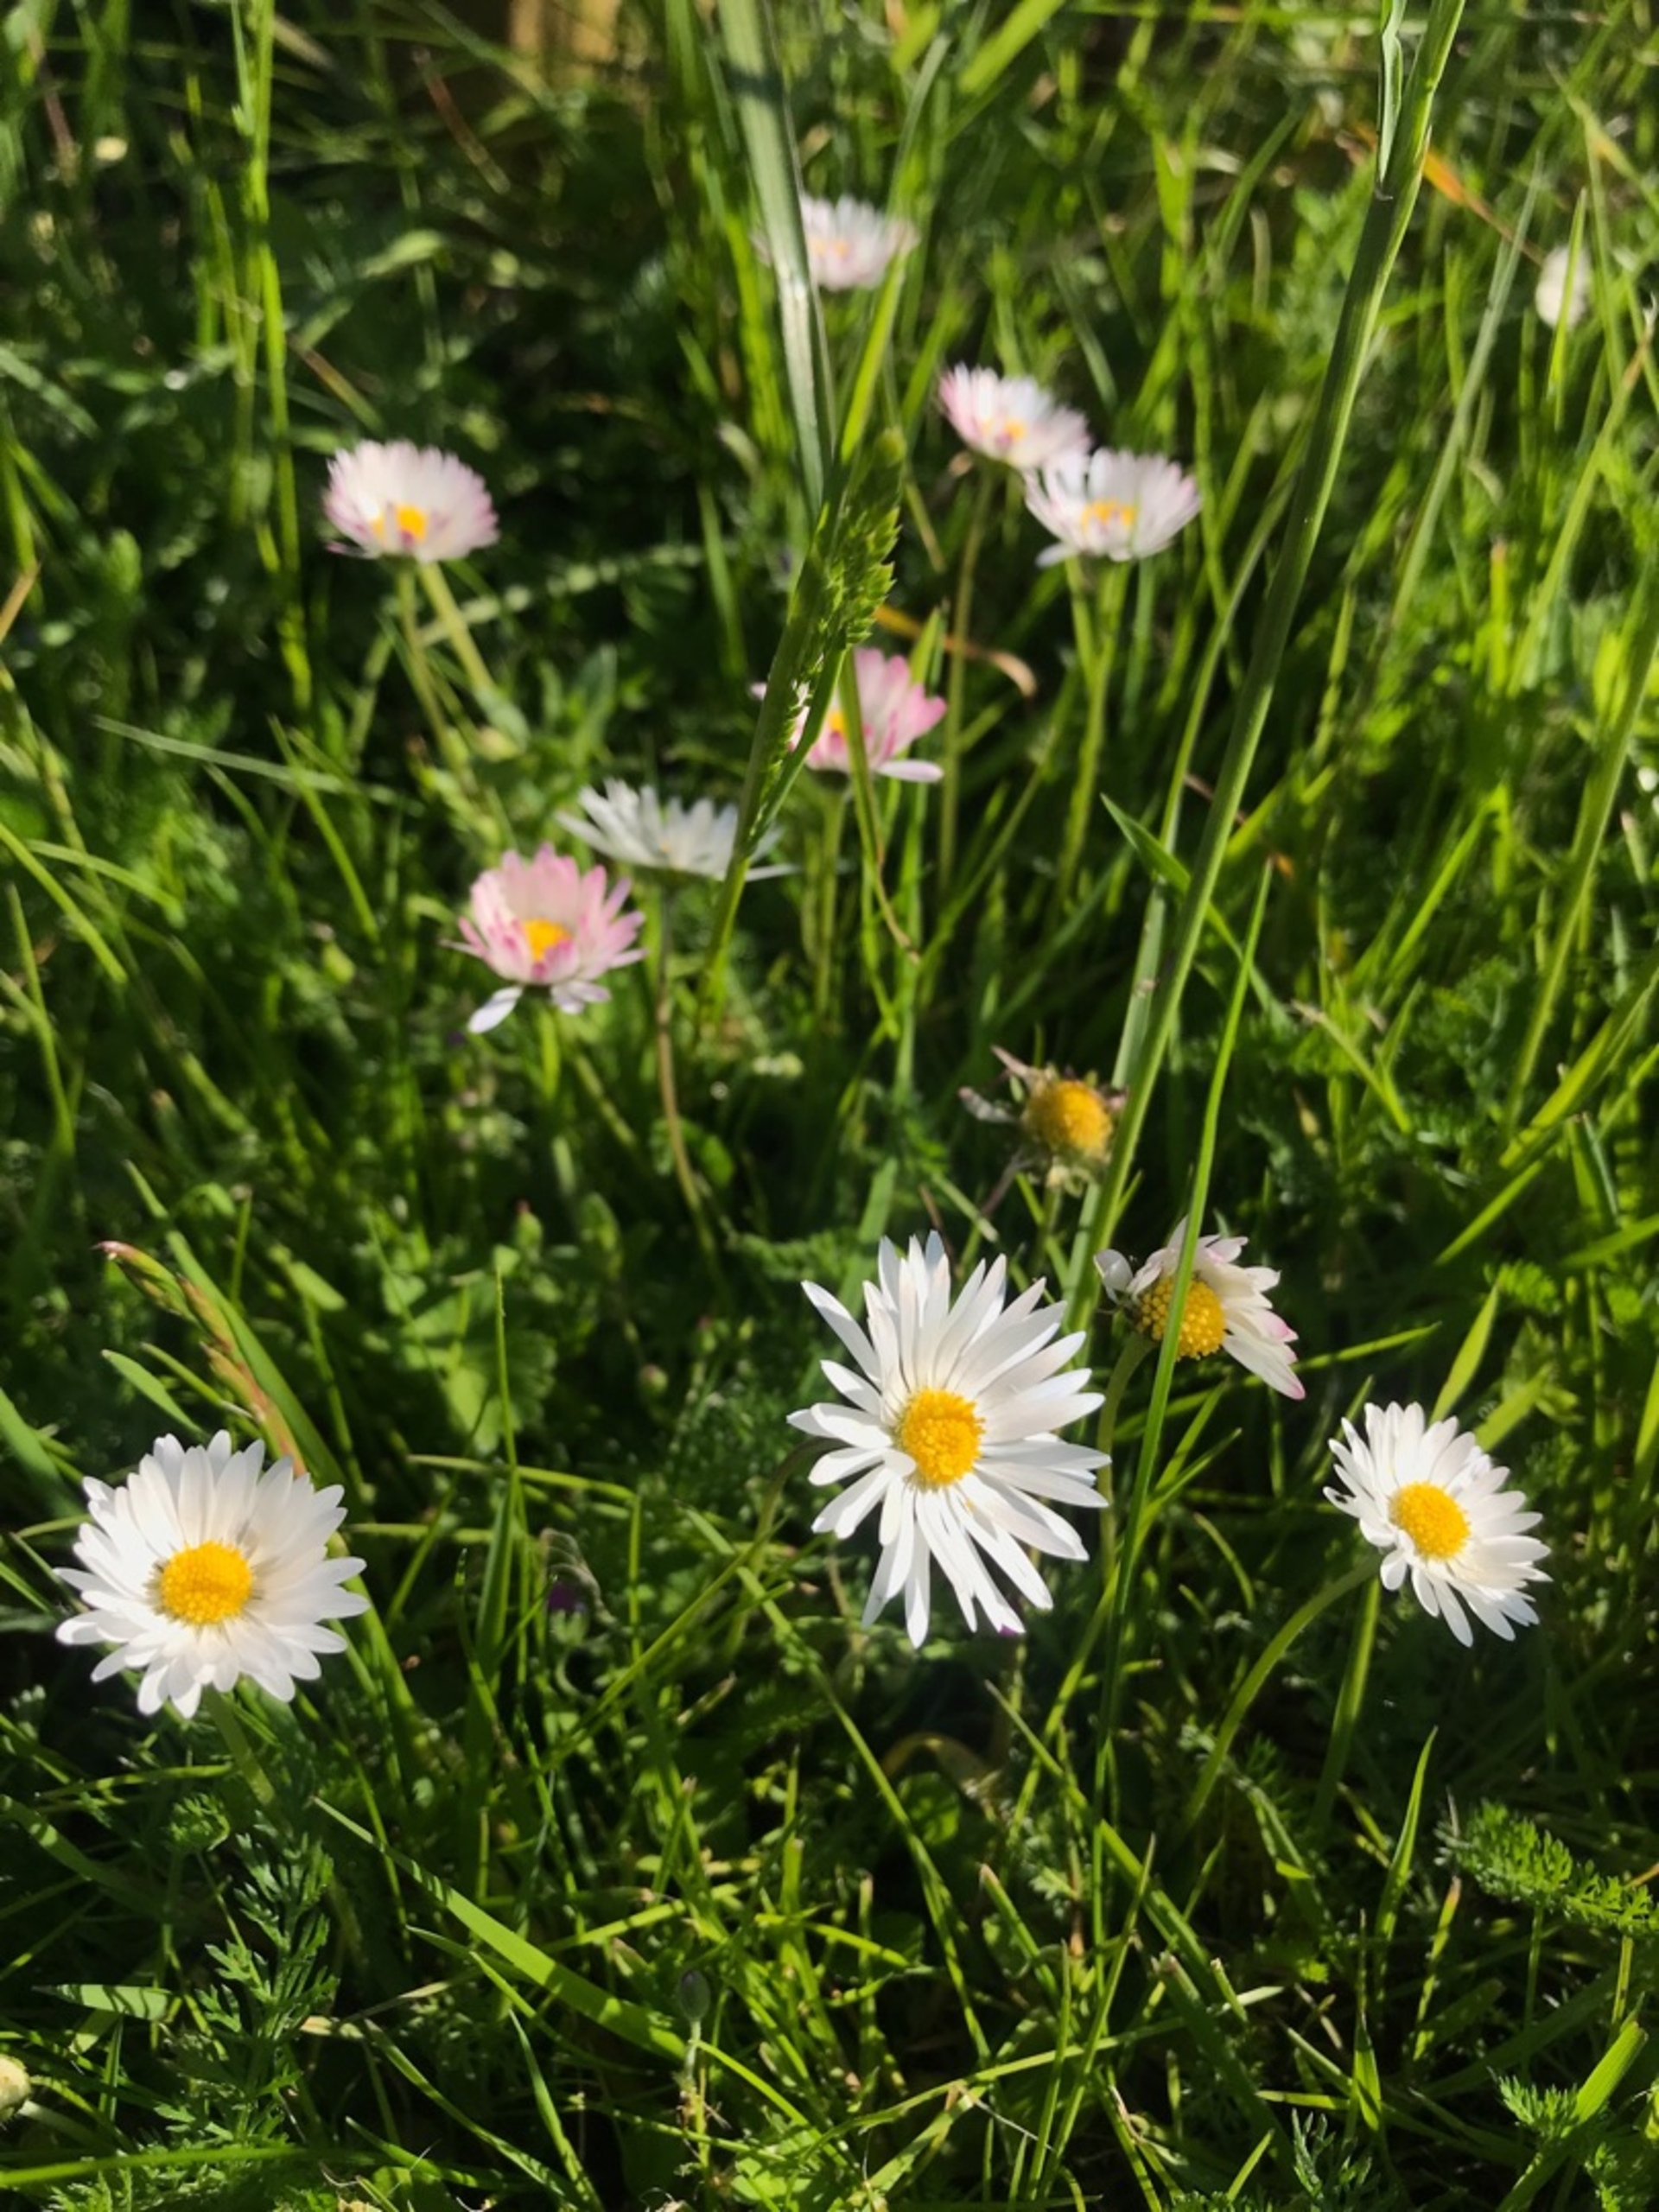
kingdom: Plantae
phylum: Tracheophyta
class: Magnoliopsida
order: Asterales
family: Asteraceae
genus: Bellis
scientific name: Bellis perennis
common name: Tusindfryd
